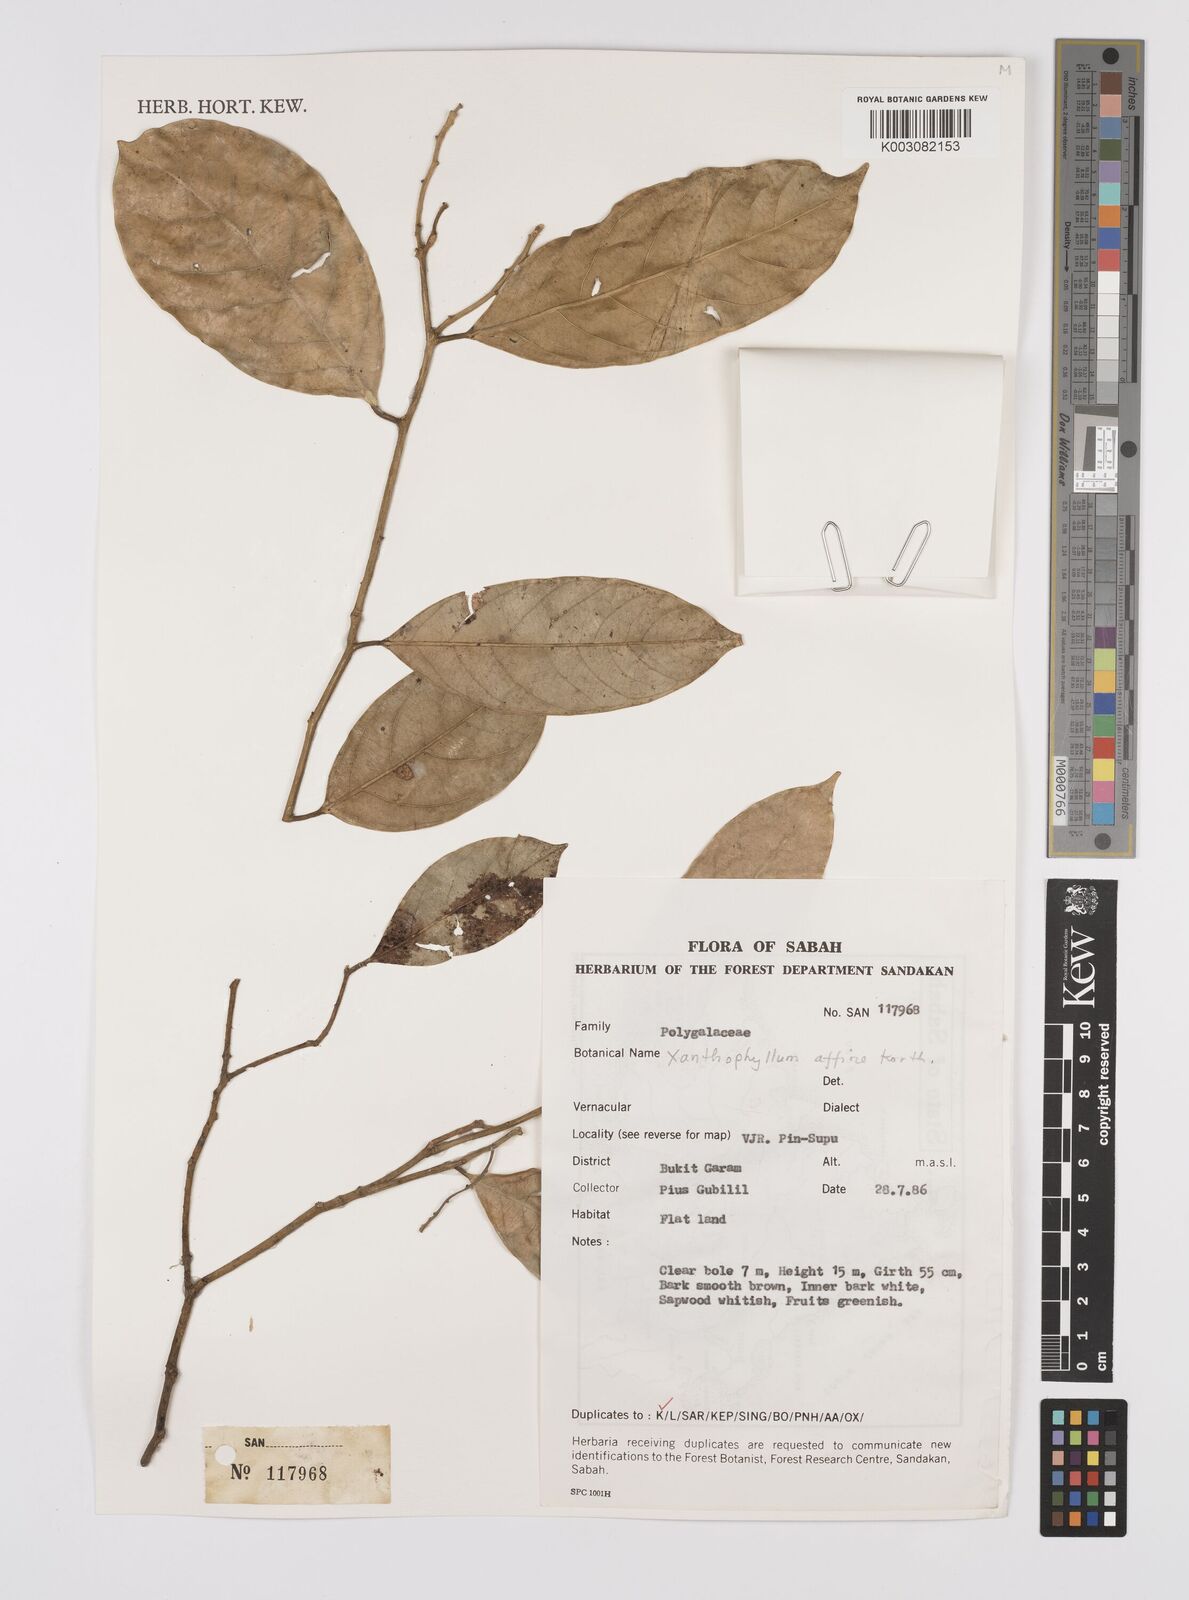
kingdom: Plantae
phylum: Tracheophyta
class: Magnoliopsida
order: Fabales
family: Polygalaceae
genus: Xanthophyllum
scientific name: Xanthophyllum havilandii
